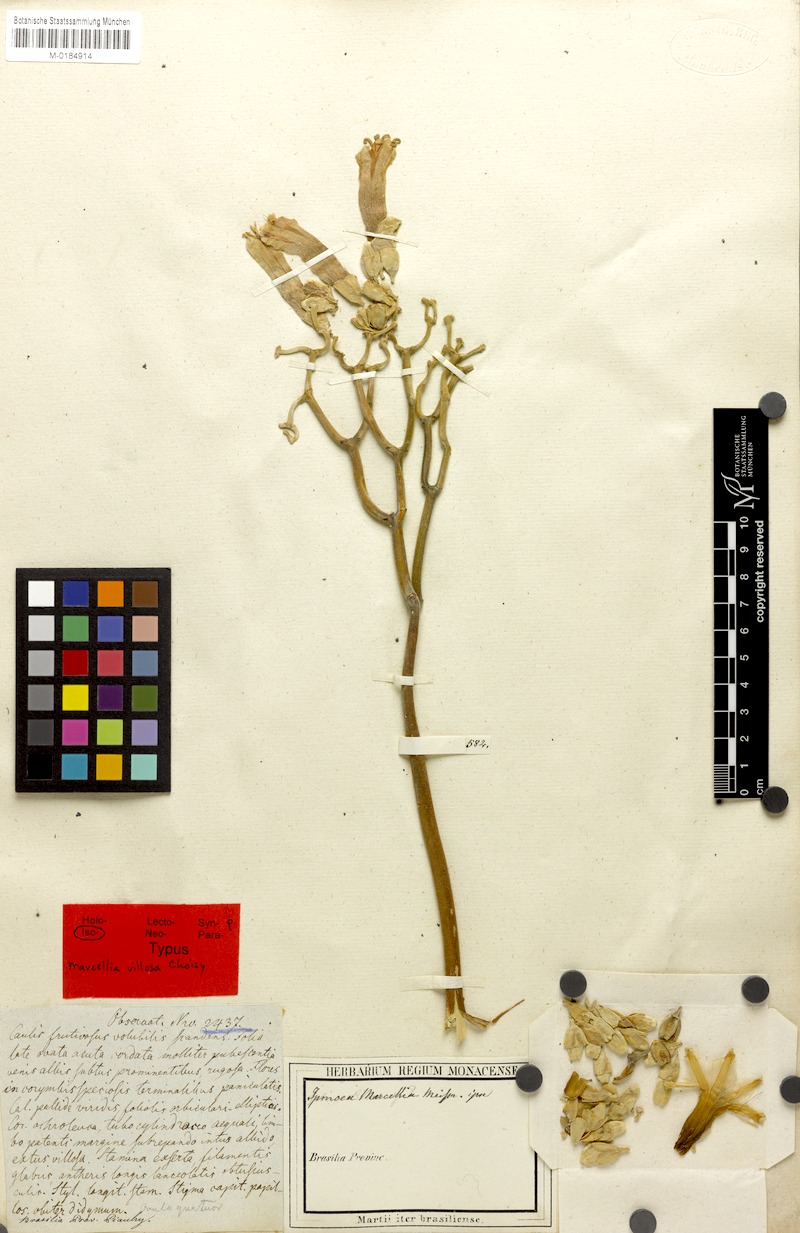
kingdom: Plantae
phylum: Tracheophyta
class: Magnoliopsida
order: Solanales
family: Convolvulaceae
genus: Ipomoea
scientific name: Ipomoea argentea
